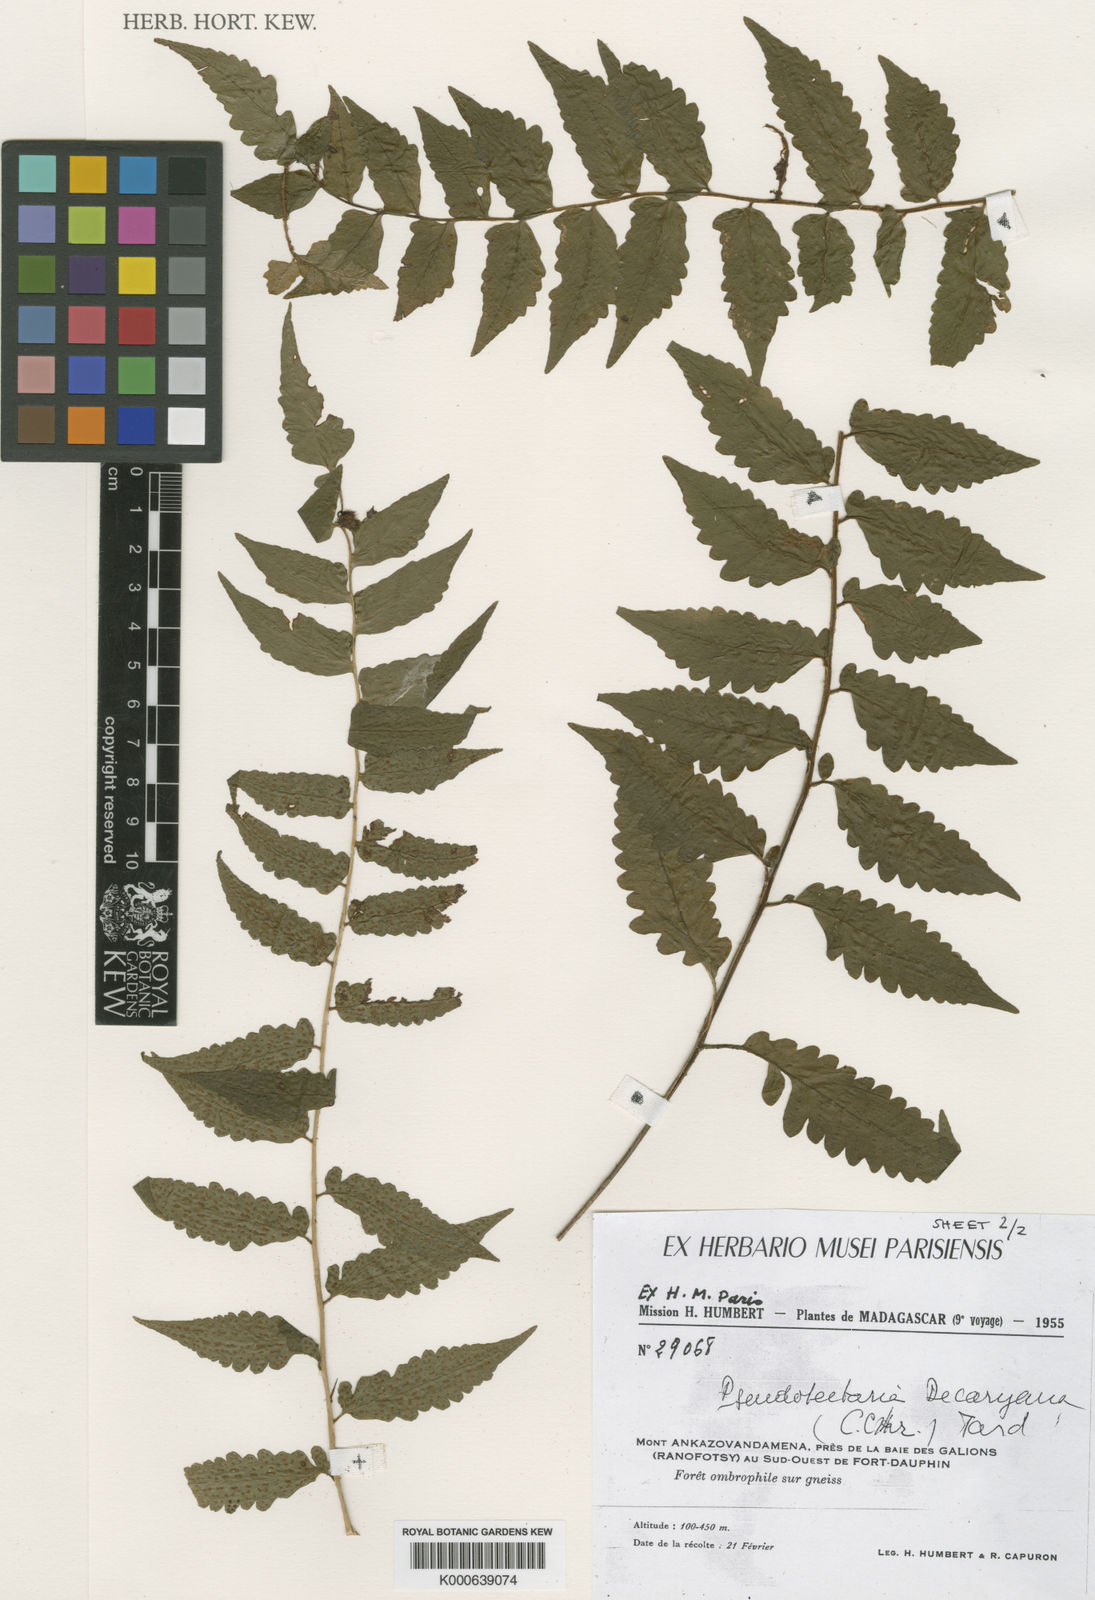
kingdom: Plantae
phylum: Tracheophyta
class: Polypodiopsida
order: Polypodiales
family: Dryopteridaceae
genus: Ctenitis
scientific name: Ctenitis decaryana
